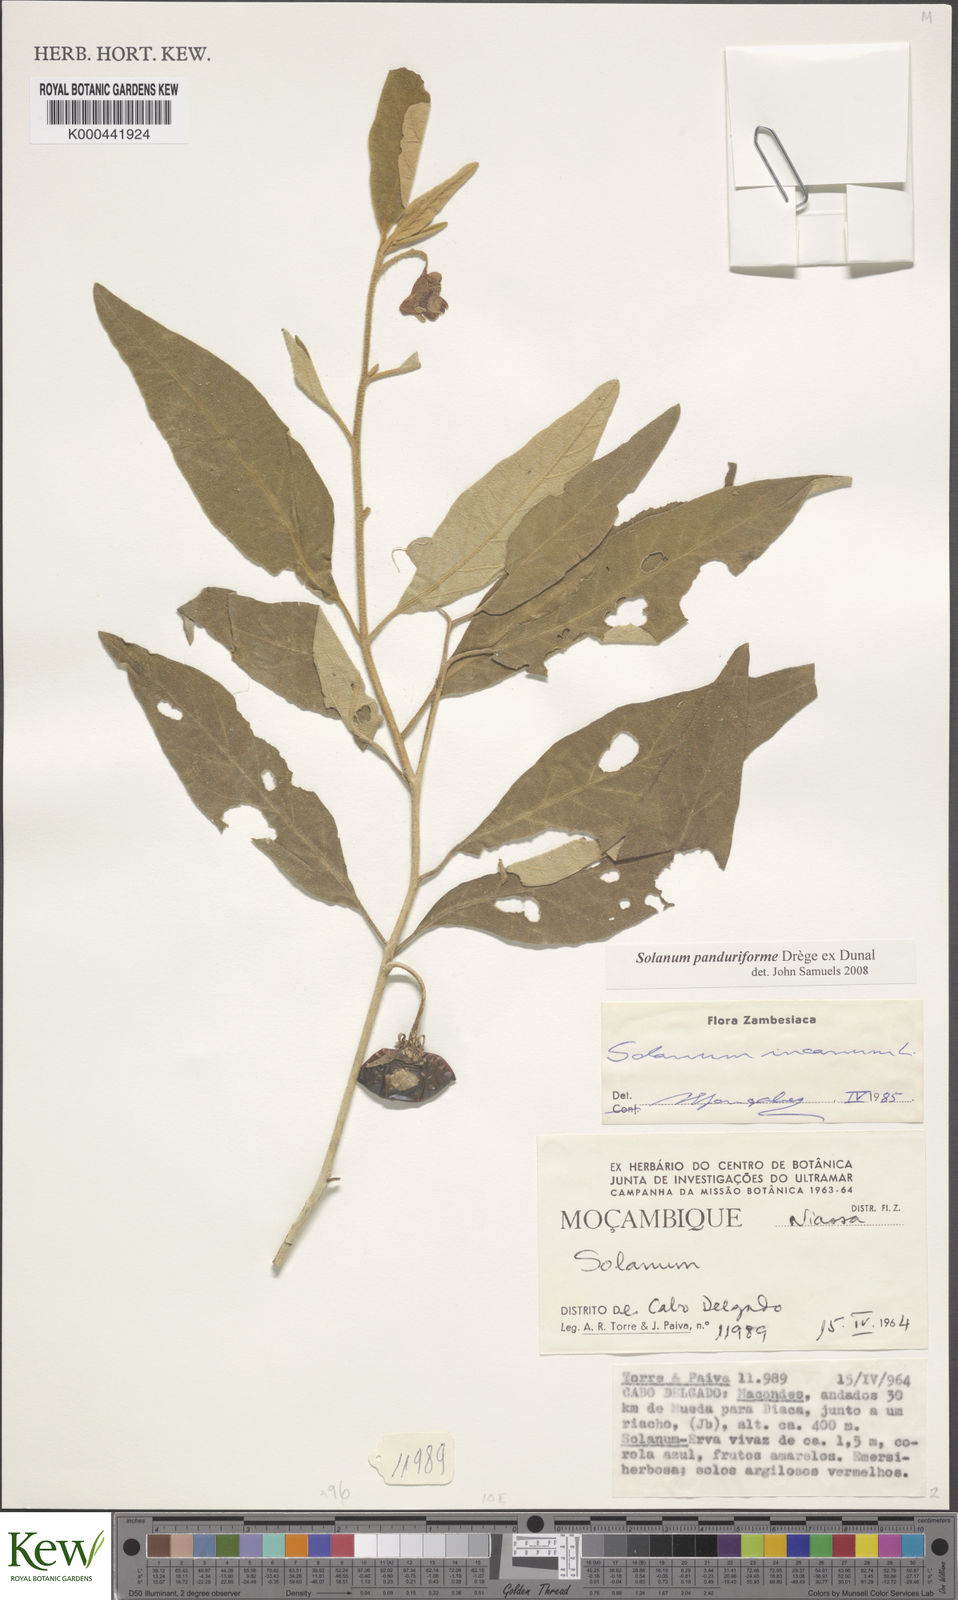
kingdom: Plantae
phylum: Tracheophyta
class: Magnoliopsida
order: Solanales
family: Solanaceae
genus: Solanum
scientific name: Solanum campylacanthum
